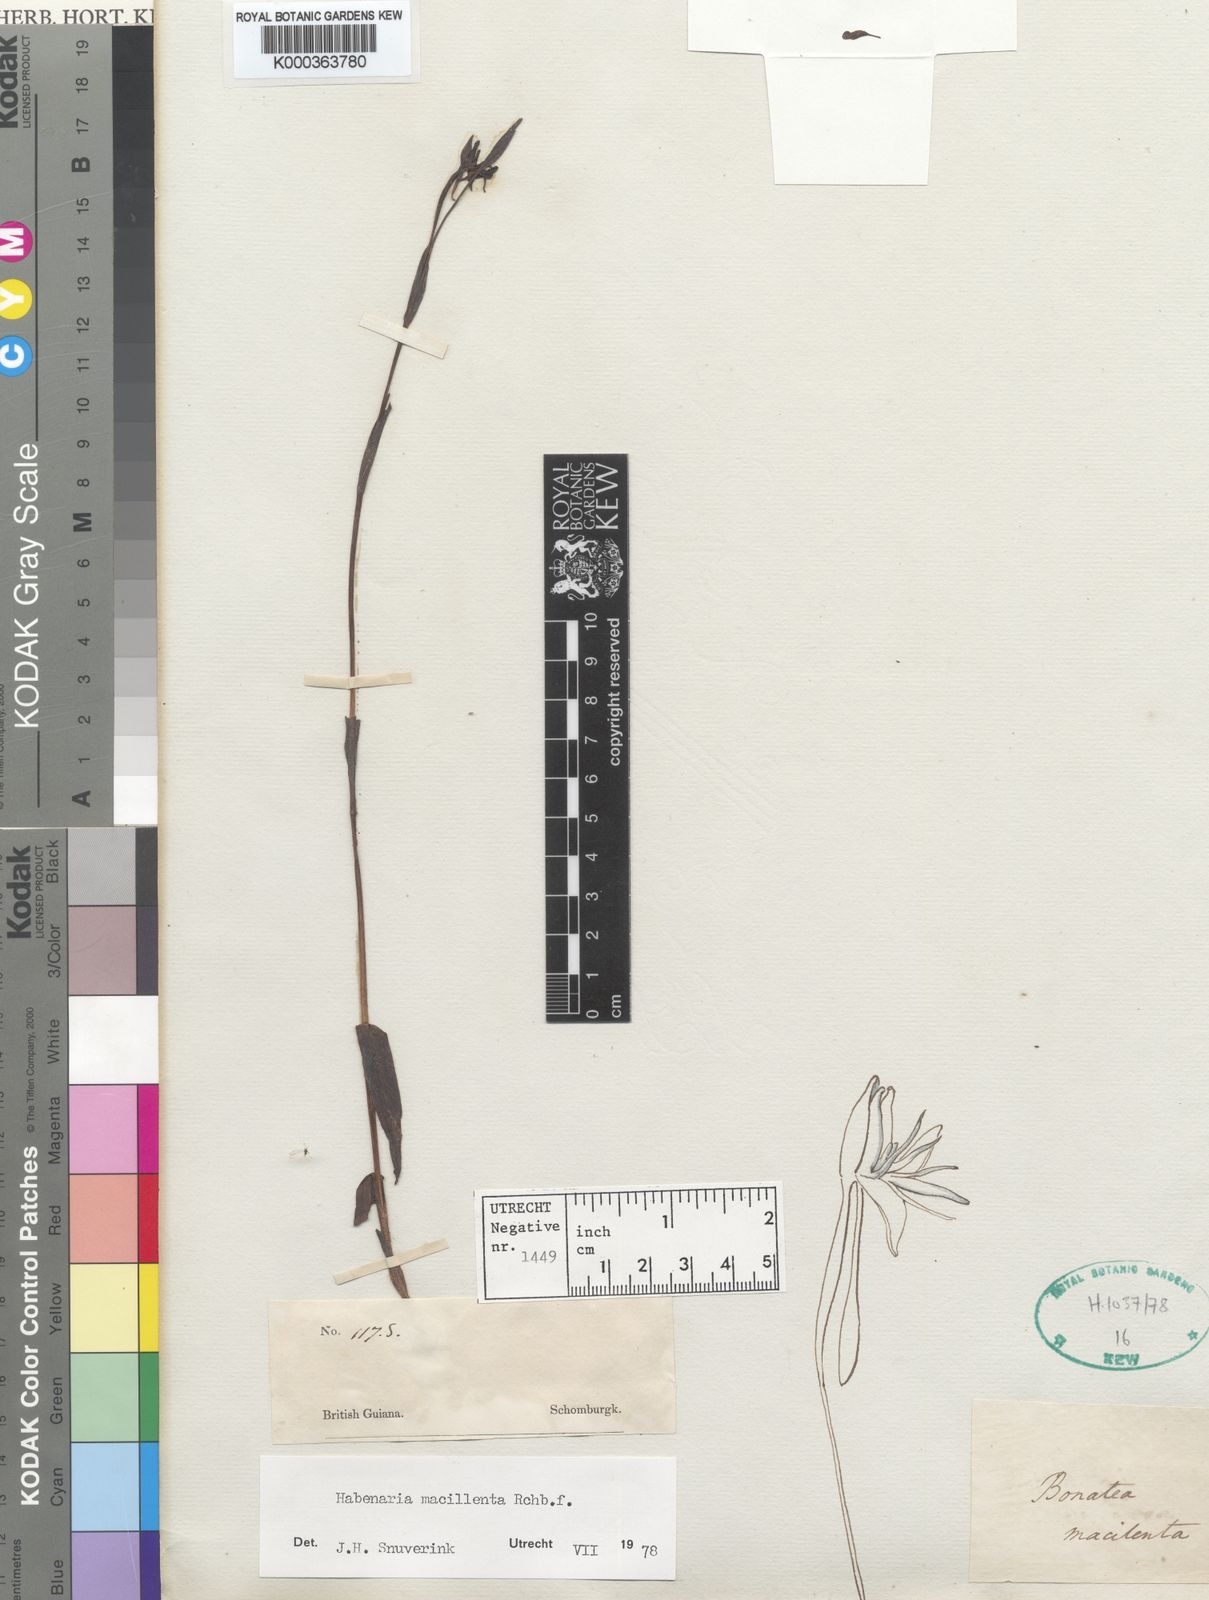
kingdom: Plantae
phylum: Tracheophyta
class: Liliopsida
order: Asparagales
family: Orchidaceae
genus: Habenaria
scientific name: Habenaria macilenta
